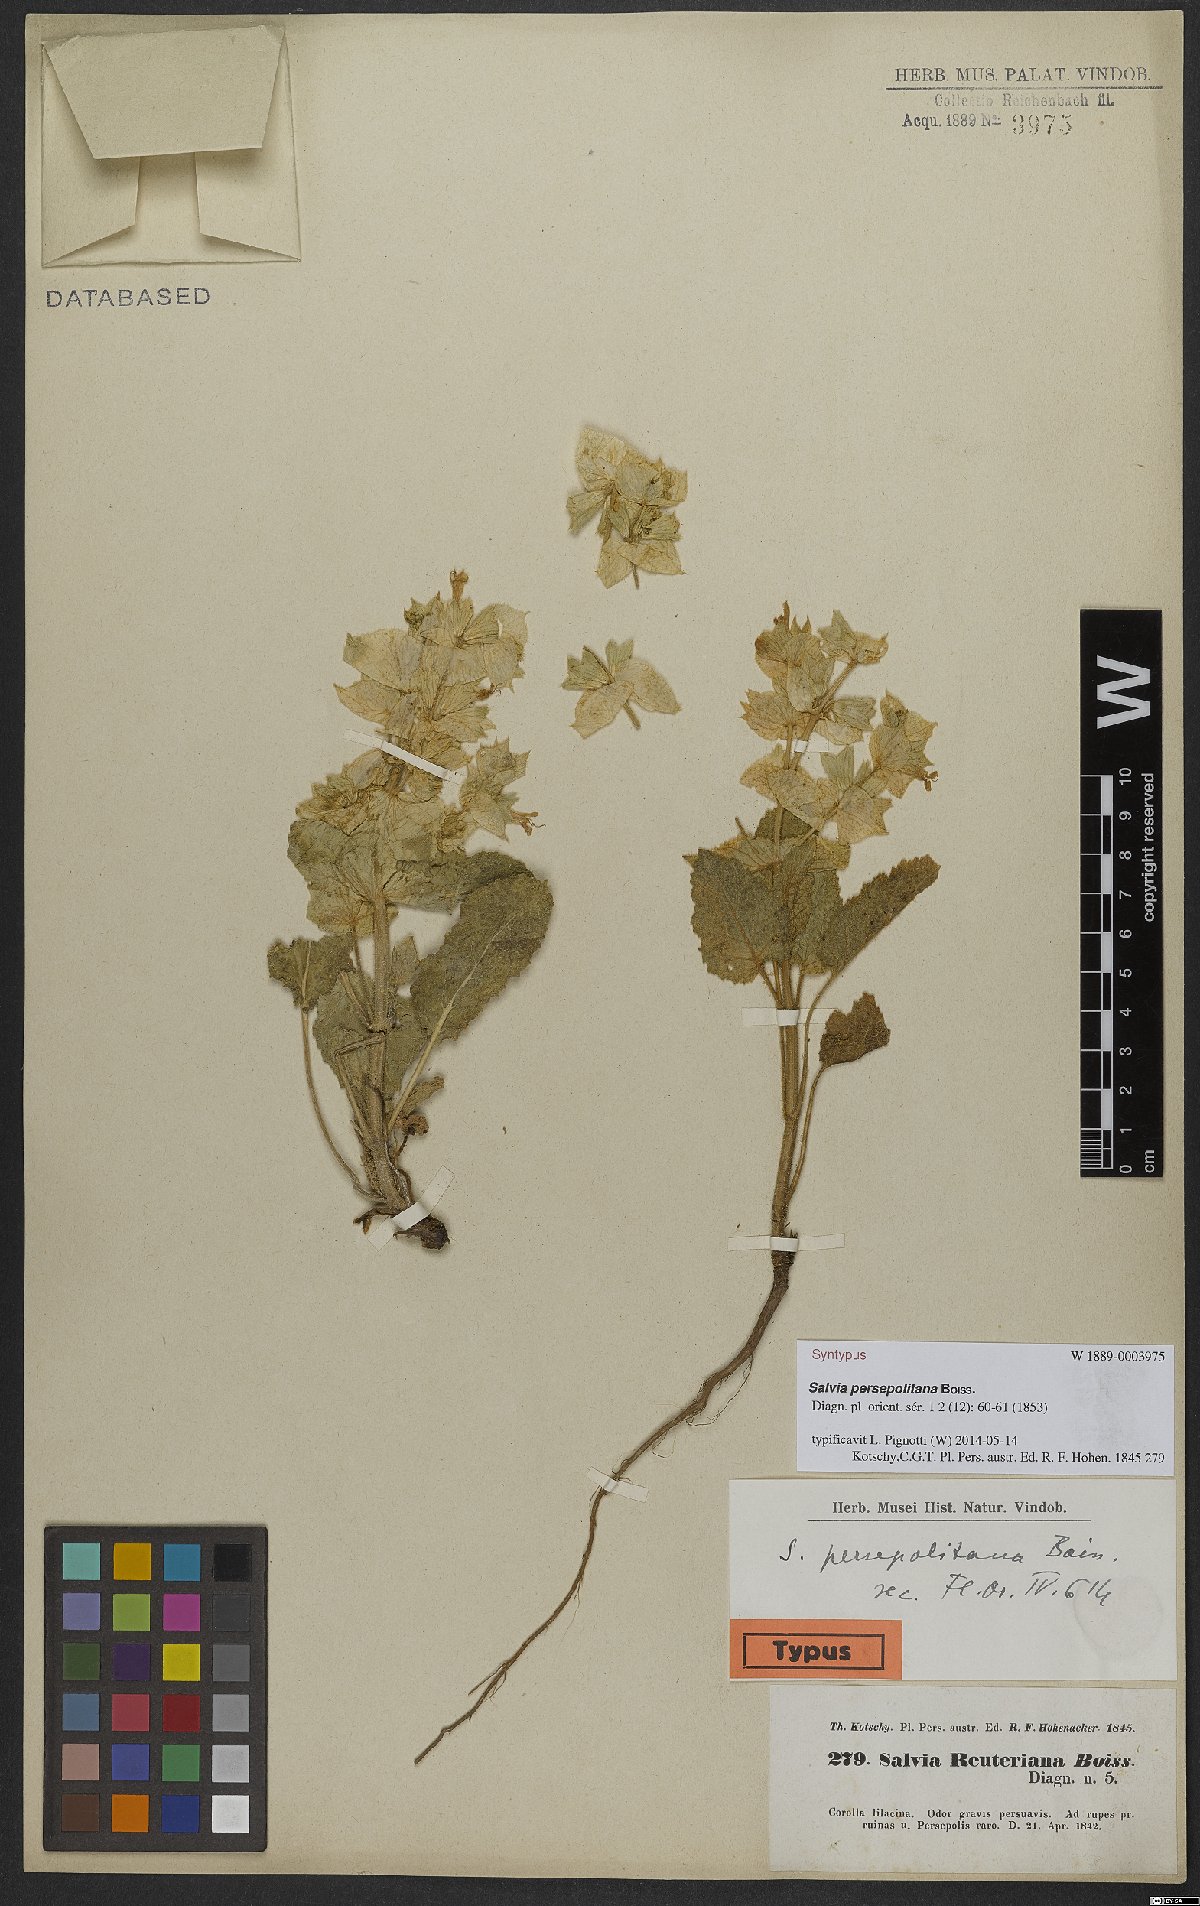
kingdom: Plantae
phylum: Tracheophyta
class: Magnoliopsida
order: Lamiales
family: Lamiaceae
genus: Salvia
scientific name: Salvia persepolitana
